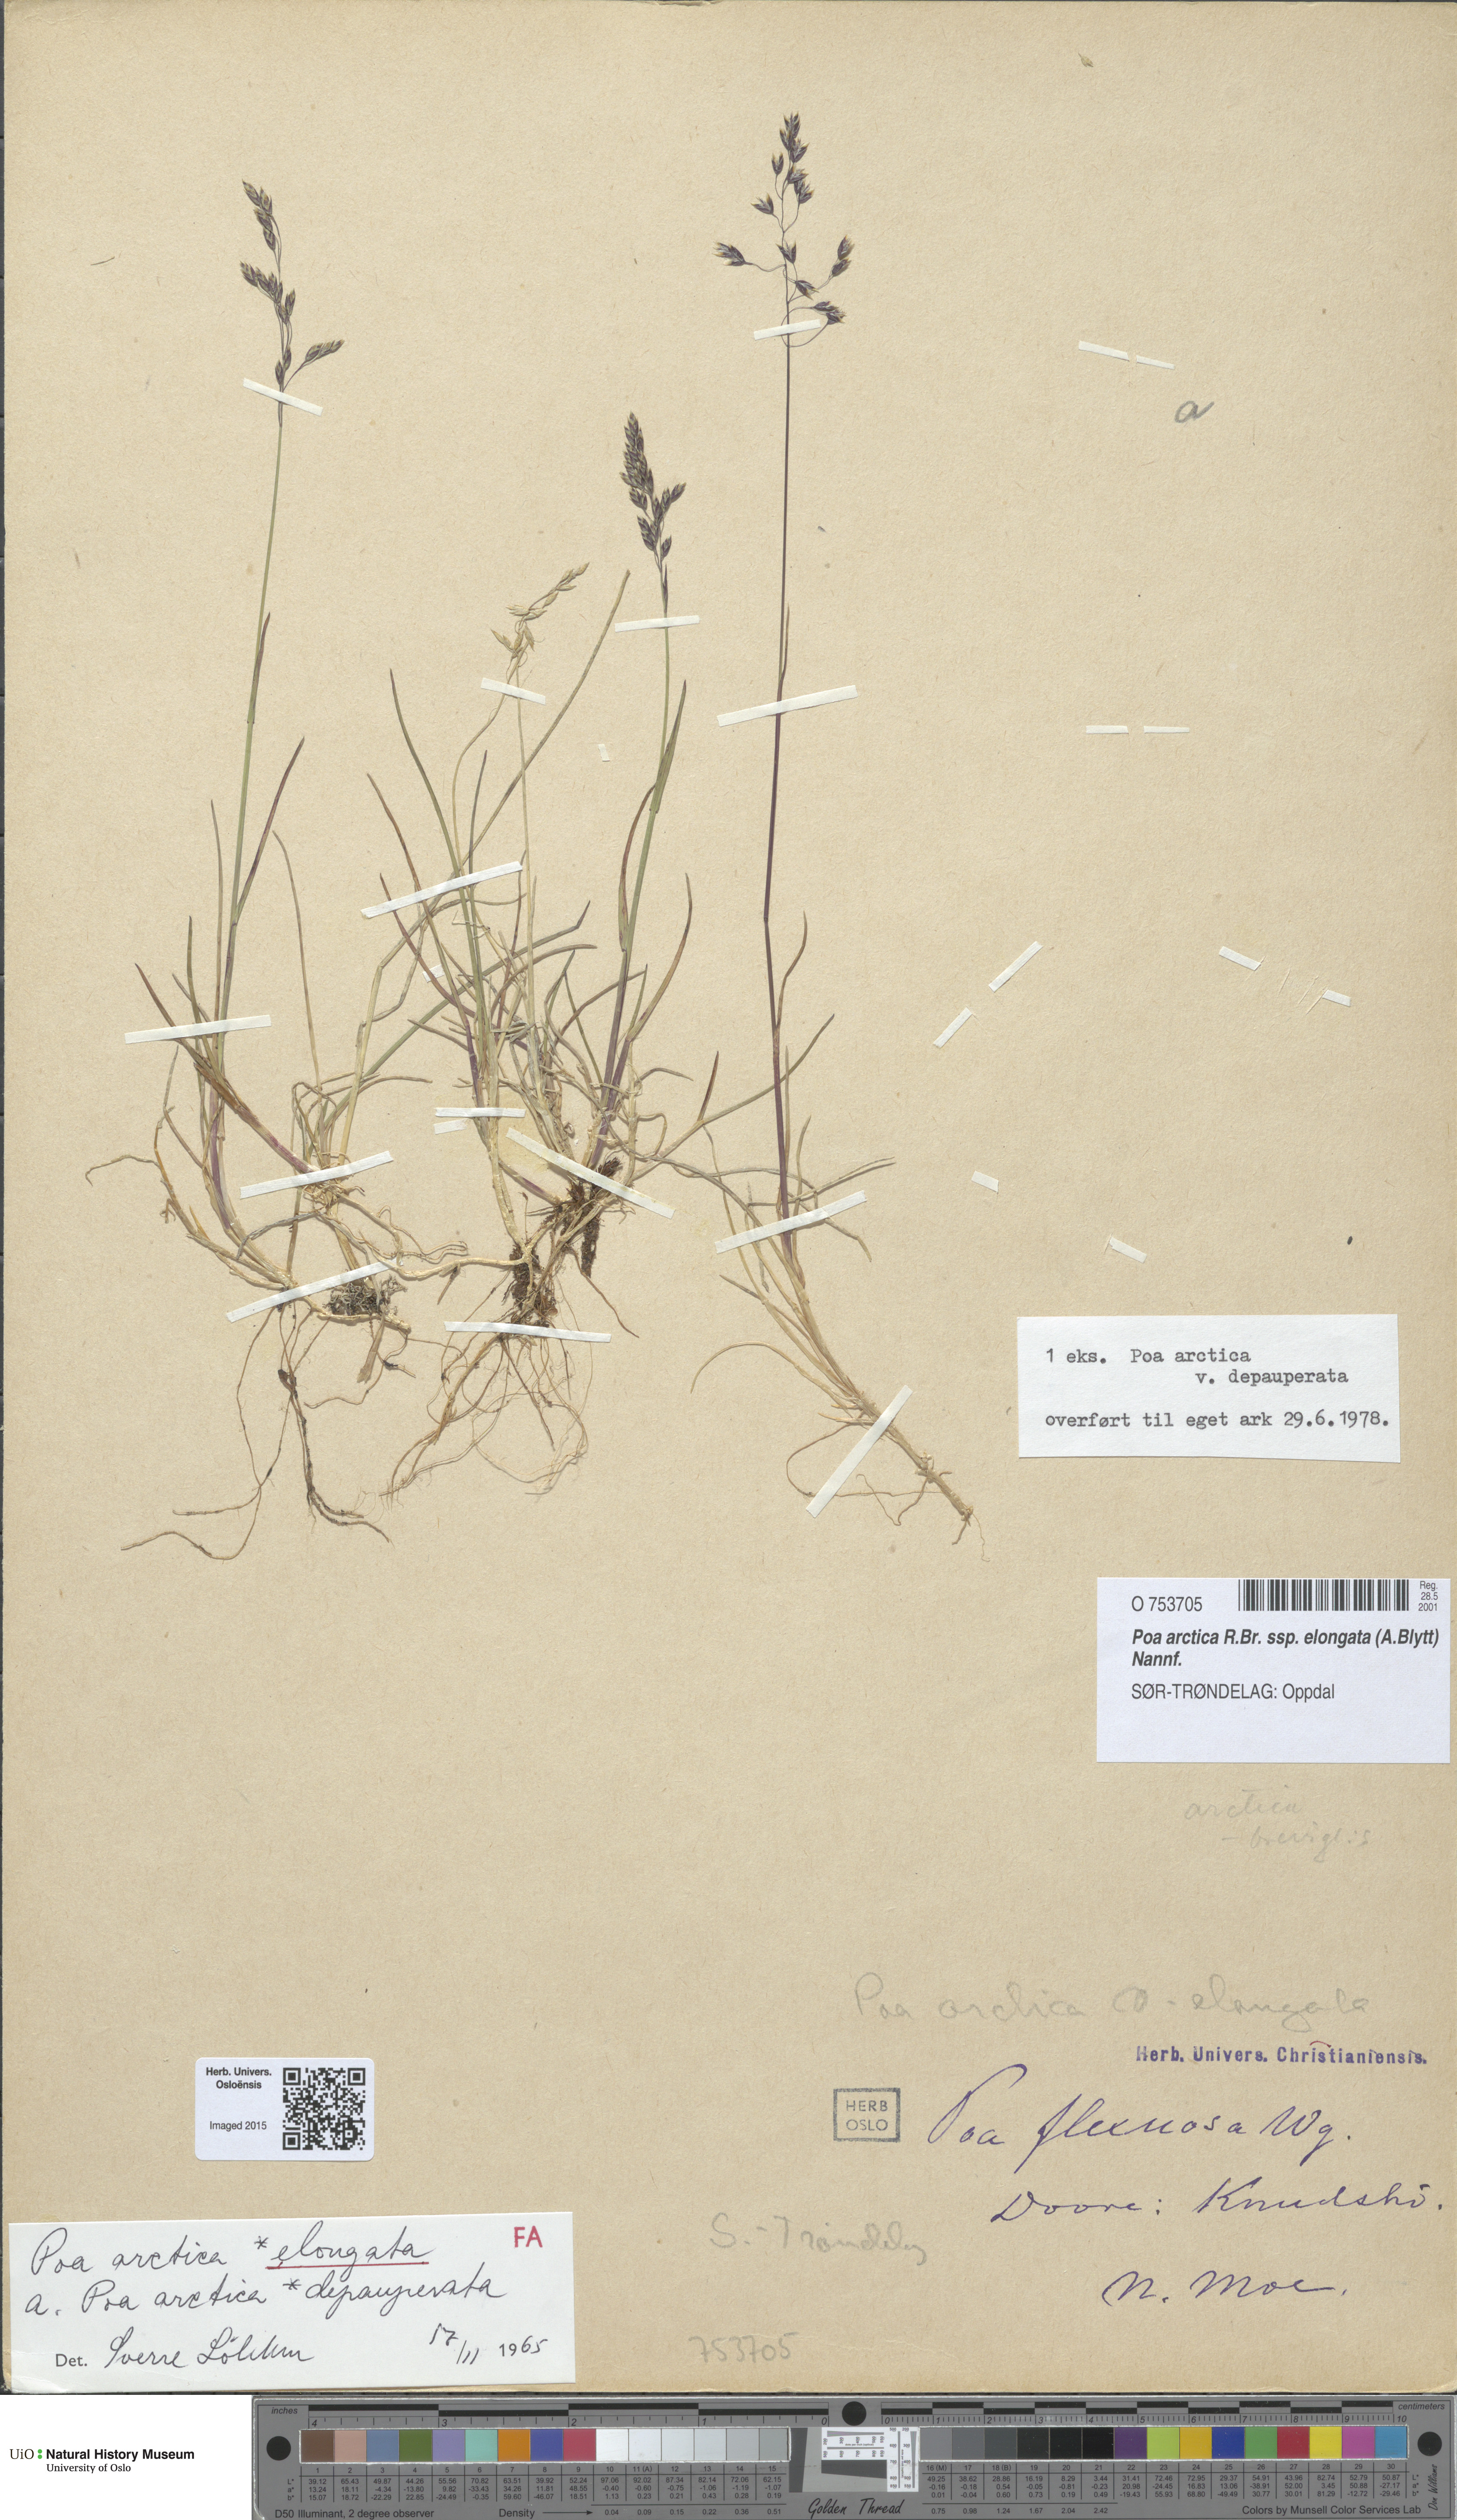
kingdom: Plantae
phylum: Tracheophyta
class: Liliopsida
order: Poales
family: Poaceae
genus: Poa
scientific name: Poa arctica
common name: Arctic bluegrass
